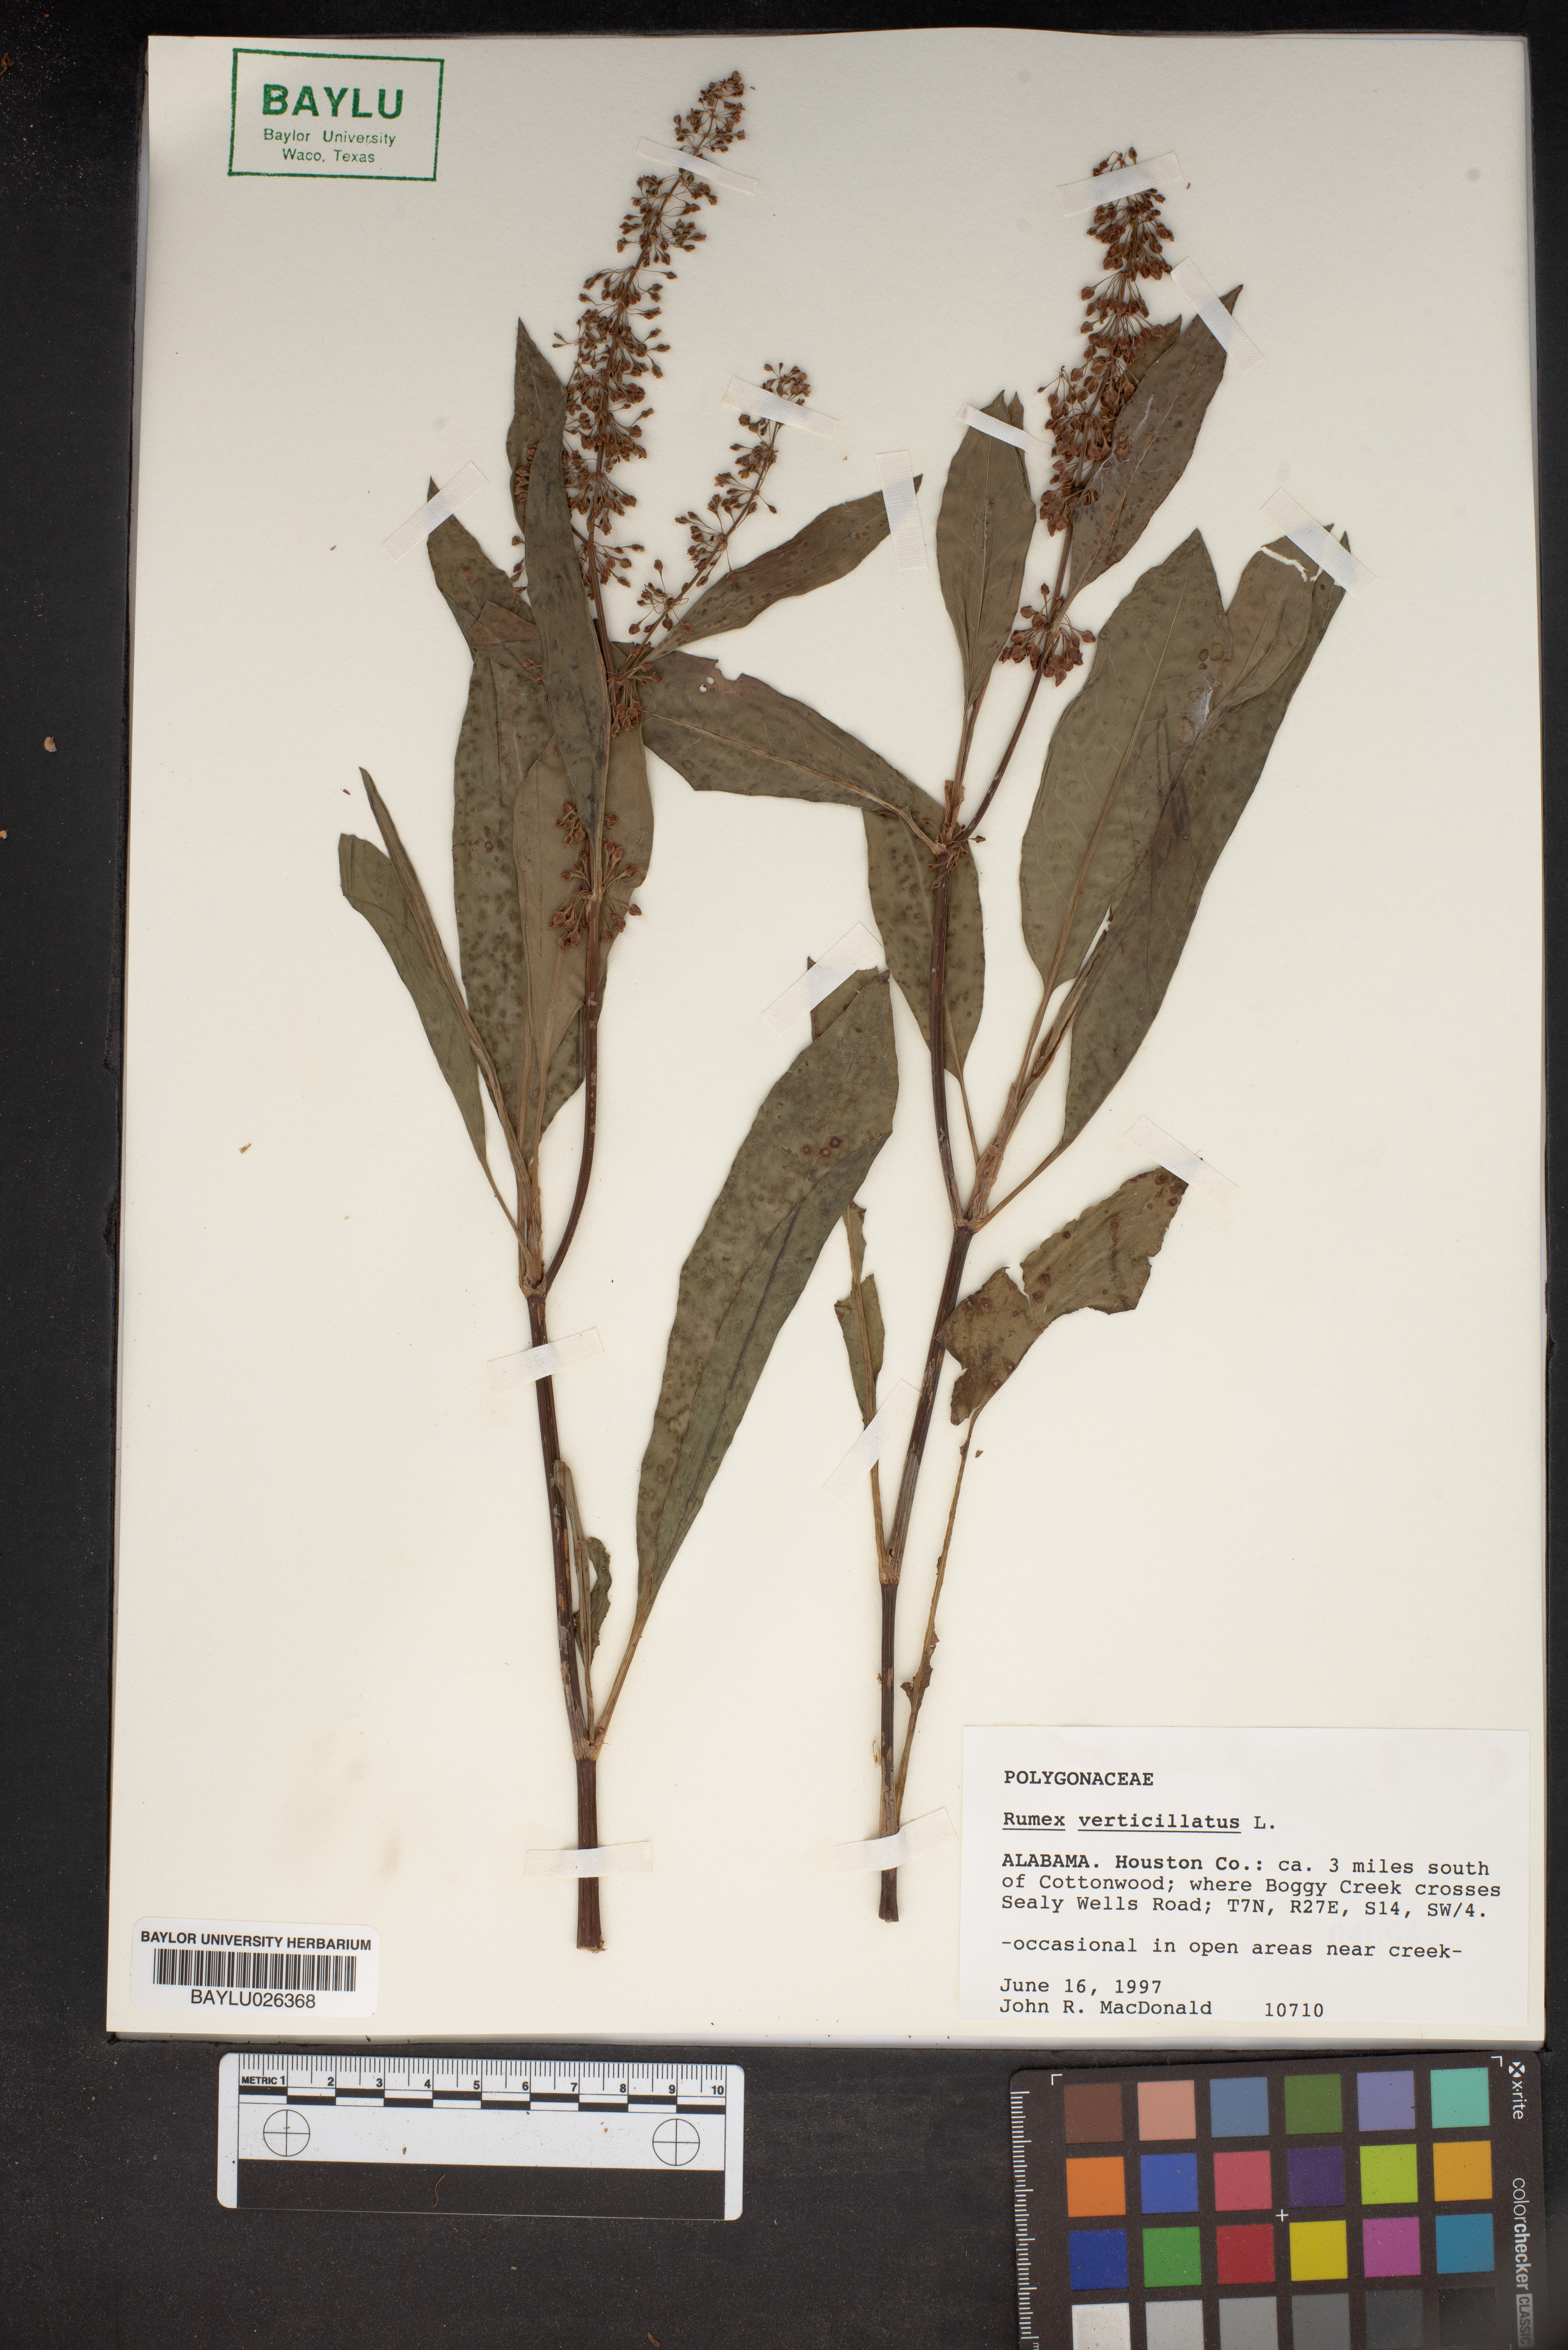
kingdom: Plantae
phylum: Tracheophyta
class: Magnoliopsida
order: Caryophyllales
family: Polygonaceae
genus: Rumex
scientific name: Rumex verticillatus
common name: Swamp dock
